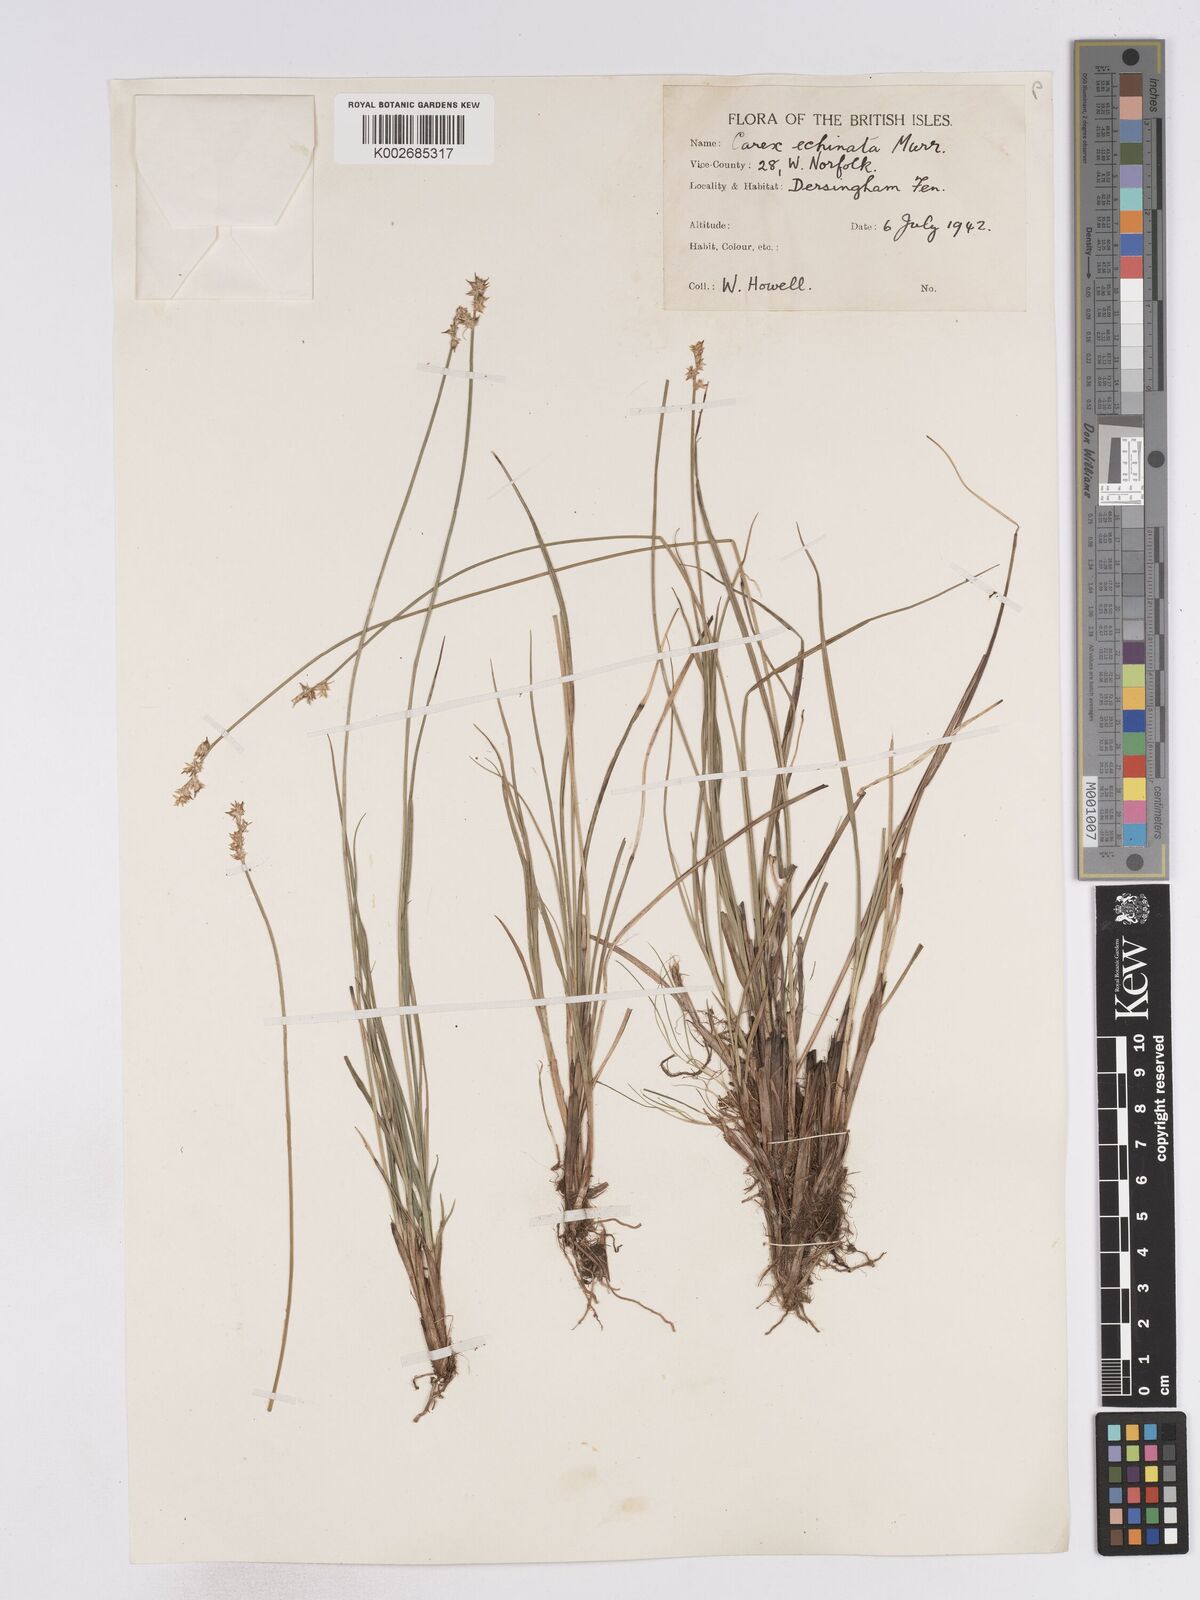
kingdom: Plantae
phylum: Tracheophyta
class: Liliopsida
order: Poales
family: Cyperaceae
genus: Carex
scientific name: Carex echinata
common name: Star sedge
